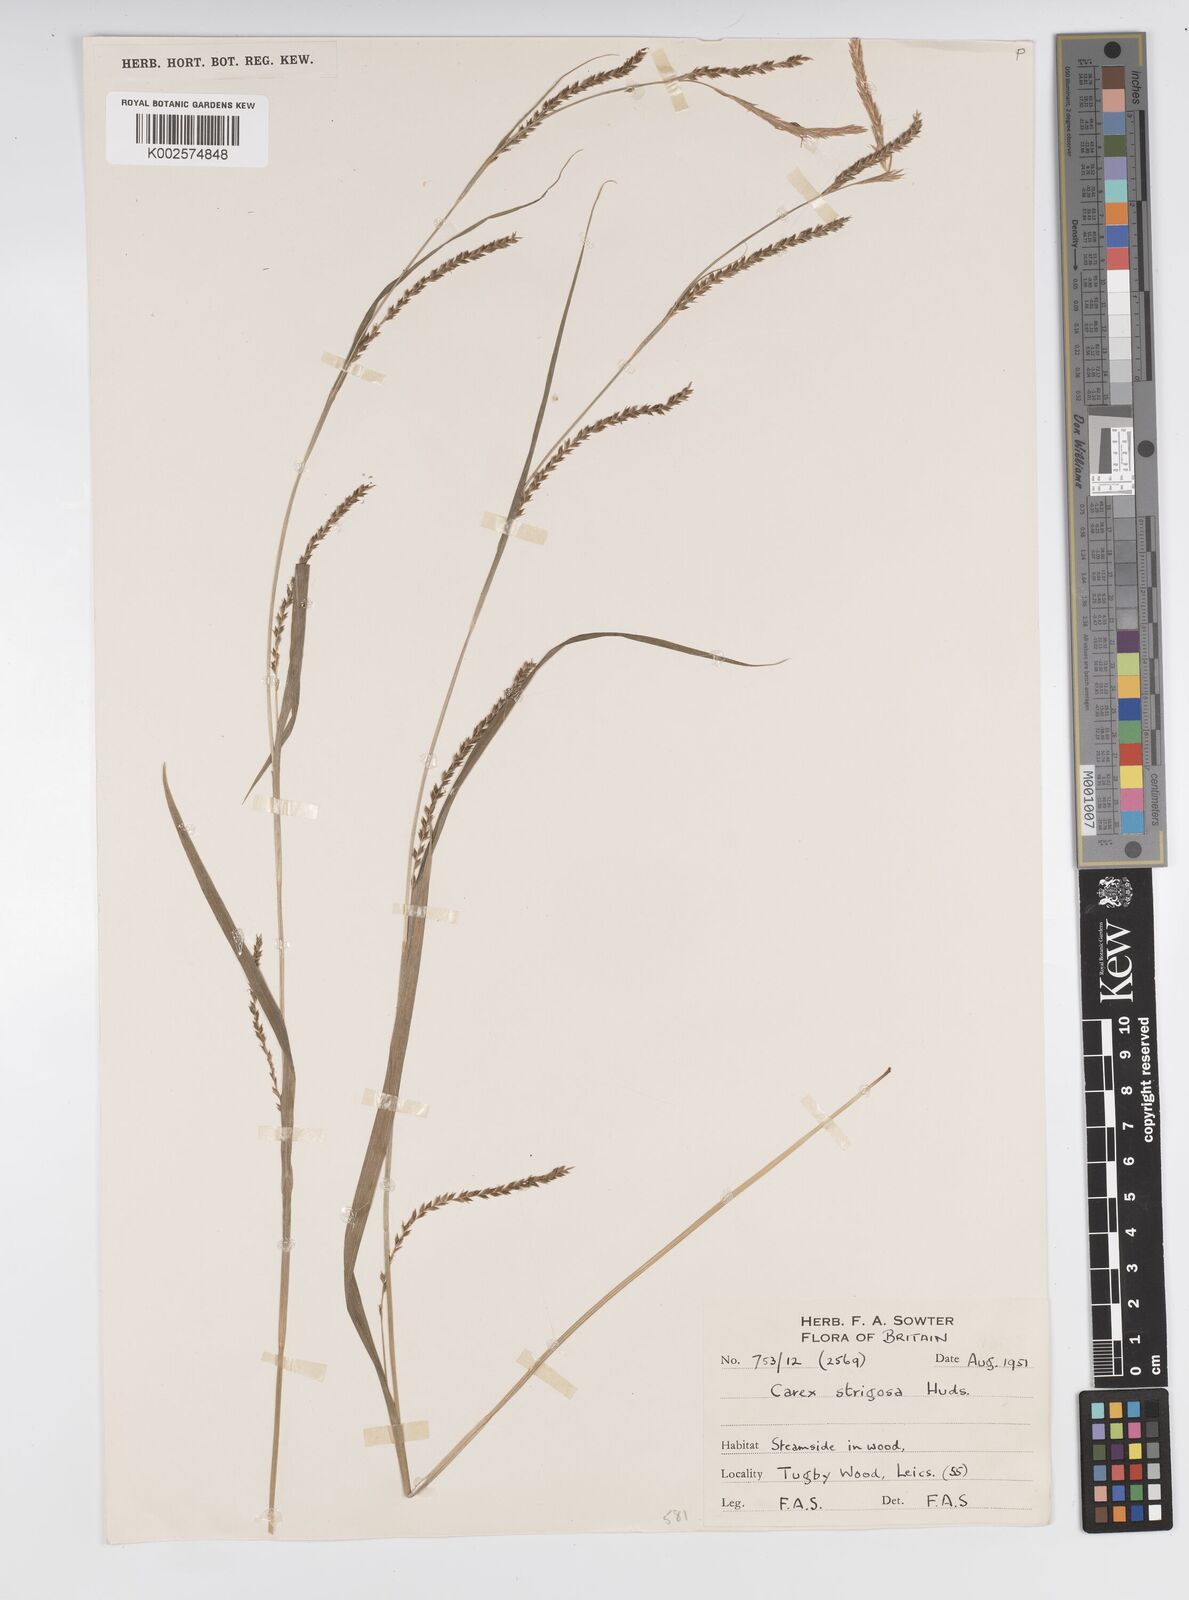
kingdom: Plantae
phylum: Tracheophyta
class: Liliopsida
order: Poales
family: Cyperaceae
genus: Carex
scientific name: Carex strigosa
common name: Thin-spiked wood-sedge
